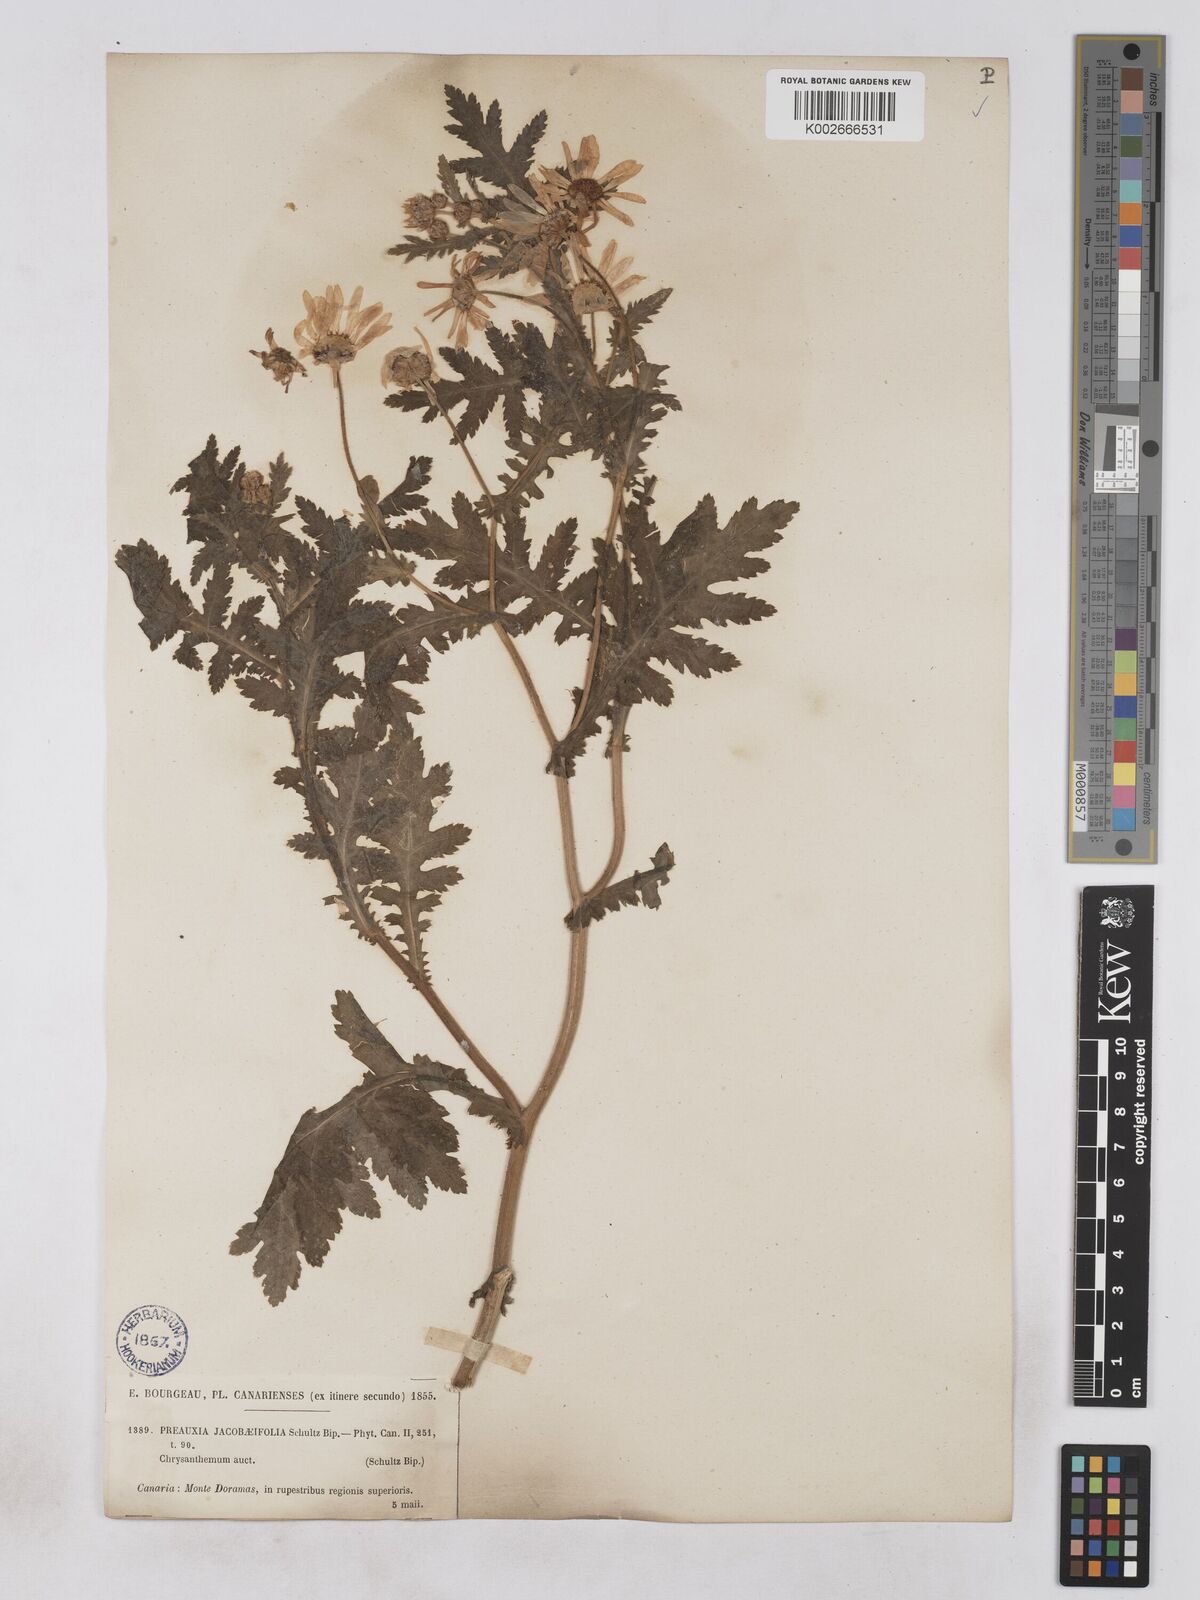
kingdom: Plantae
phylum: Tracheophyta
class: Magnoliopsida
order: Asterales
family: Asteraceae
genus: Argyranthemum
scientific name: Argyranthemum adauctum
